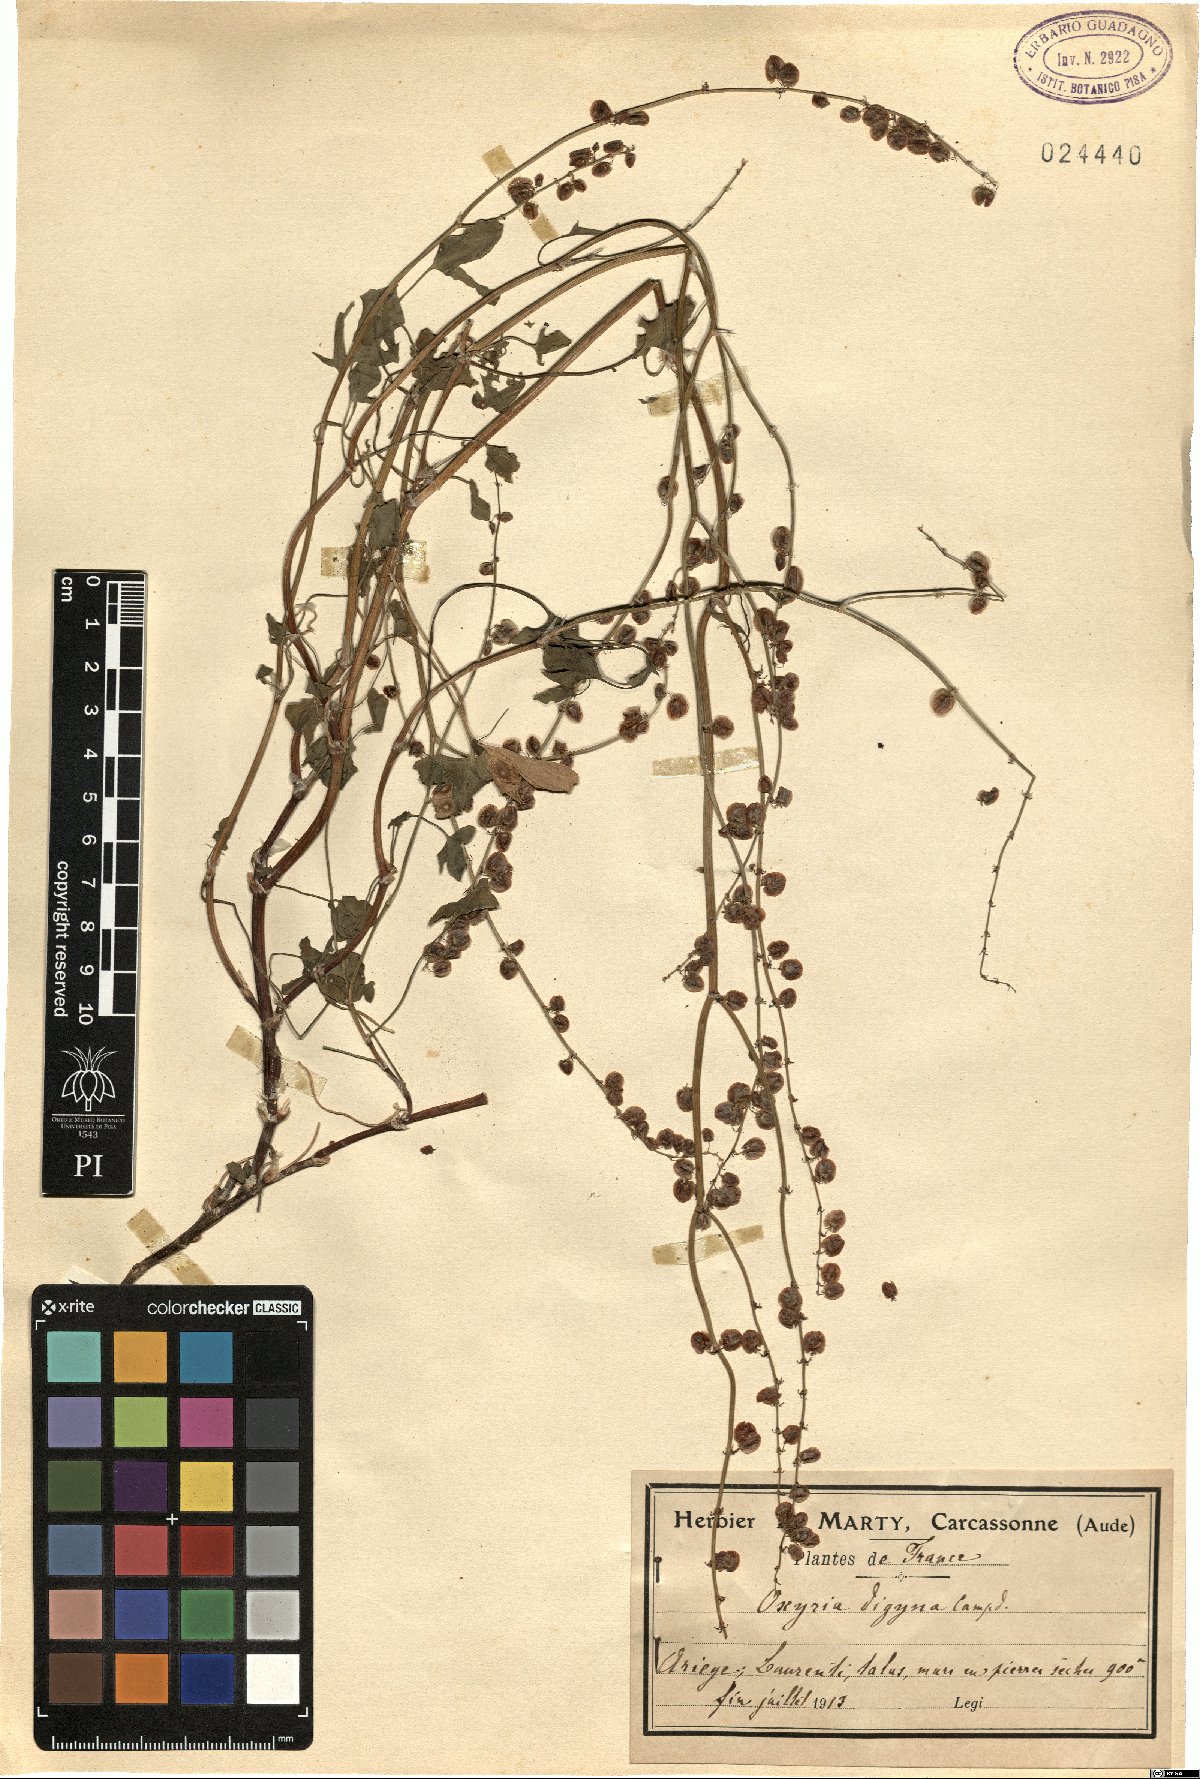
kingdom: Plantae
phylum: Tracheophyta
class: Magnoliopsida
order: Caryophyllales
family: Polygonaceae
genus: Oxyria
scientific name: Oxyria digyna
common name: Alpine mountain-sorrel
